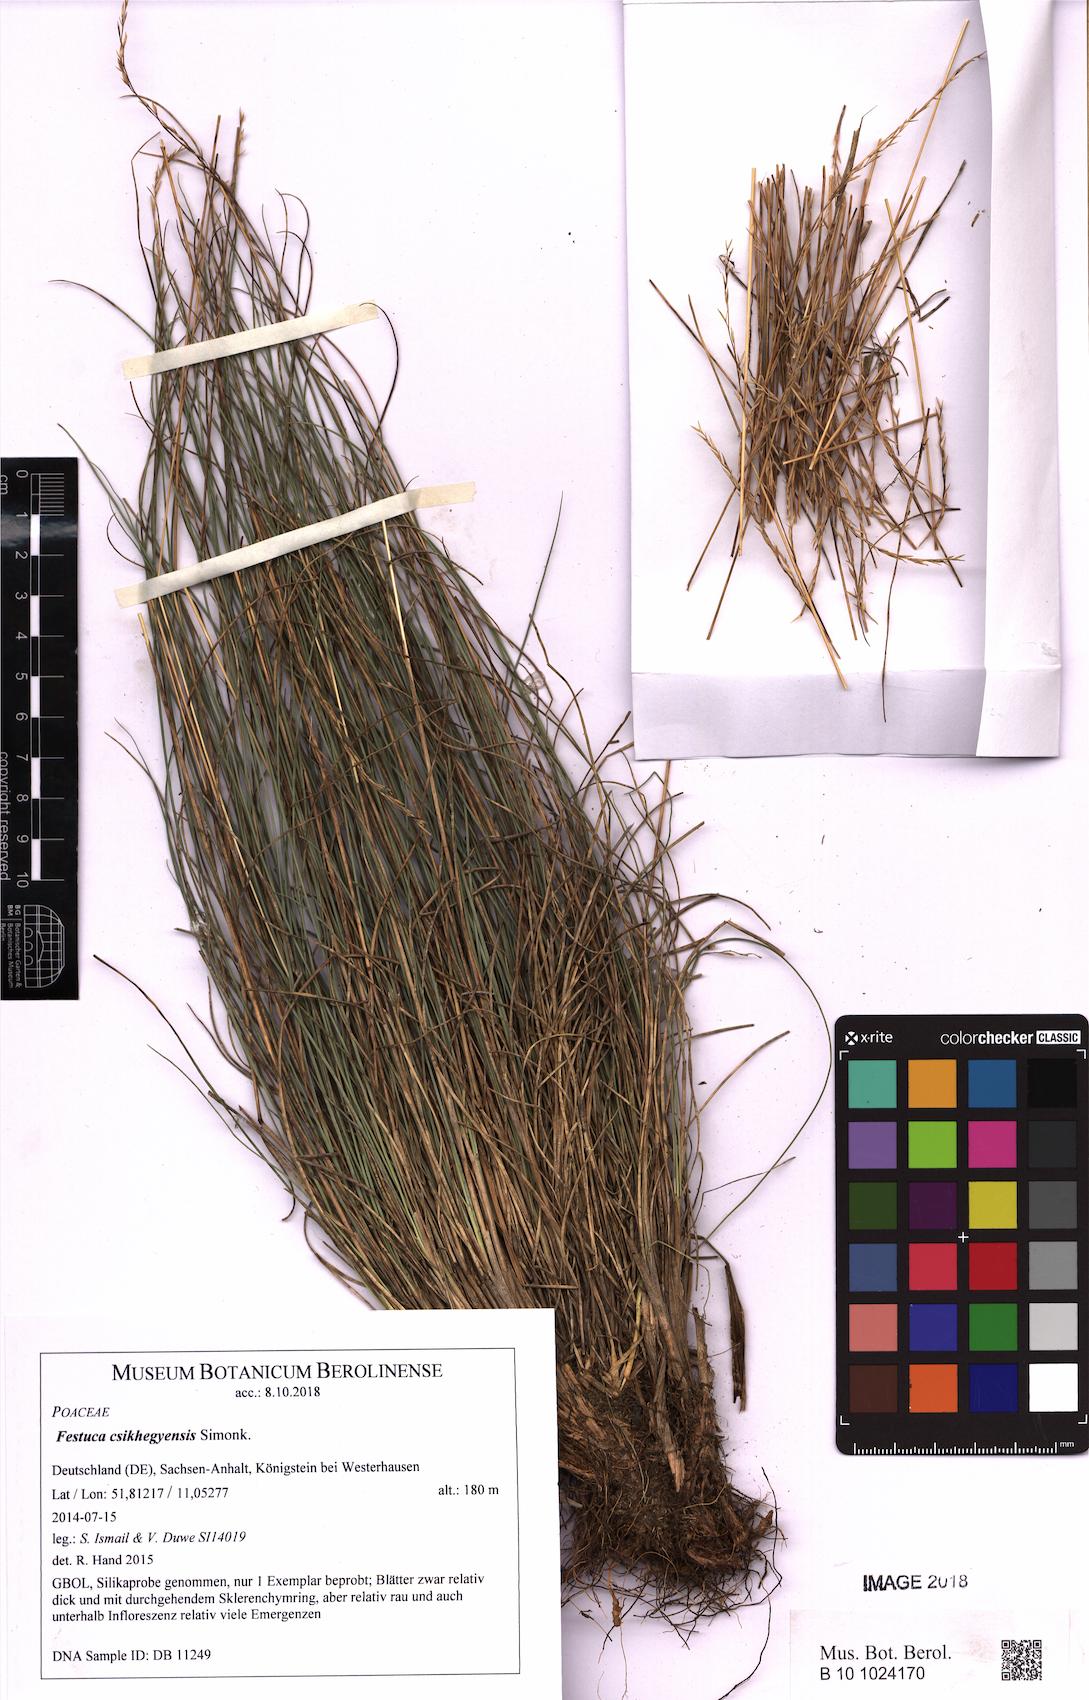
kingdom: Plantae
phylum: Tracheophyta
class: Liliopsida
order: Poales
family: Poaceae
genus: Festuca
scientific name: Festuca csikhegyensis
